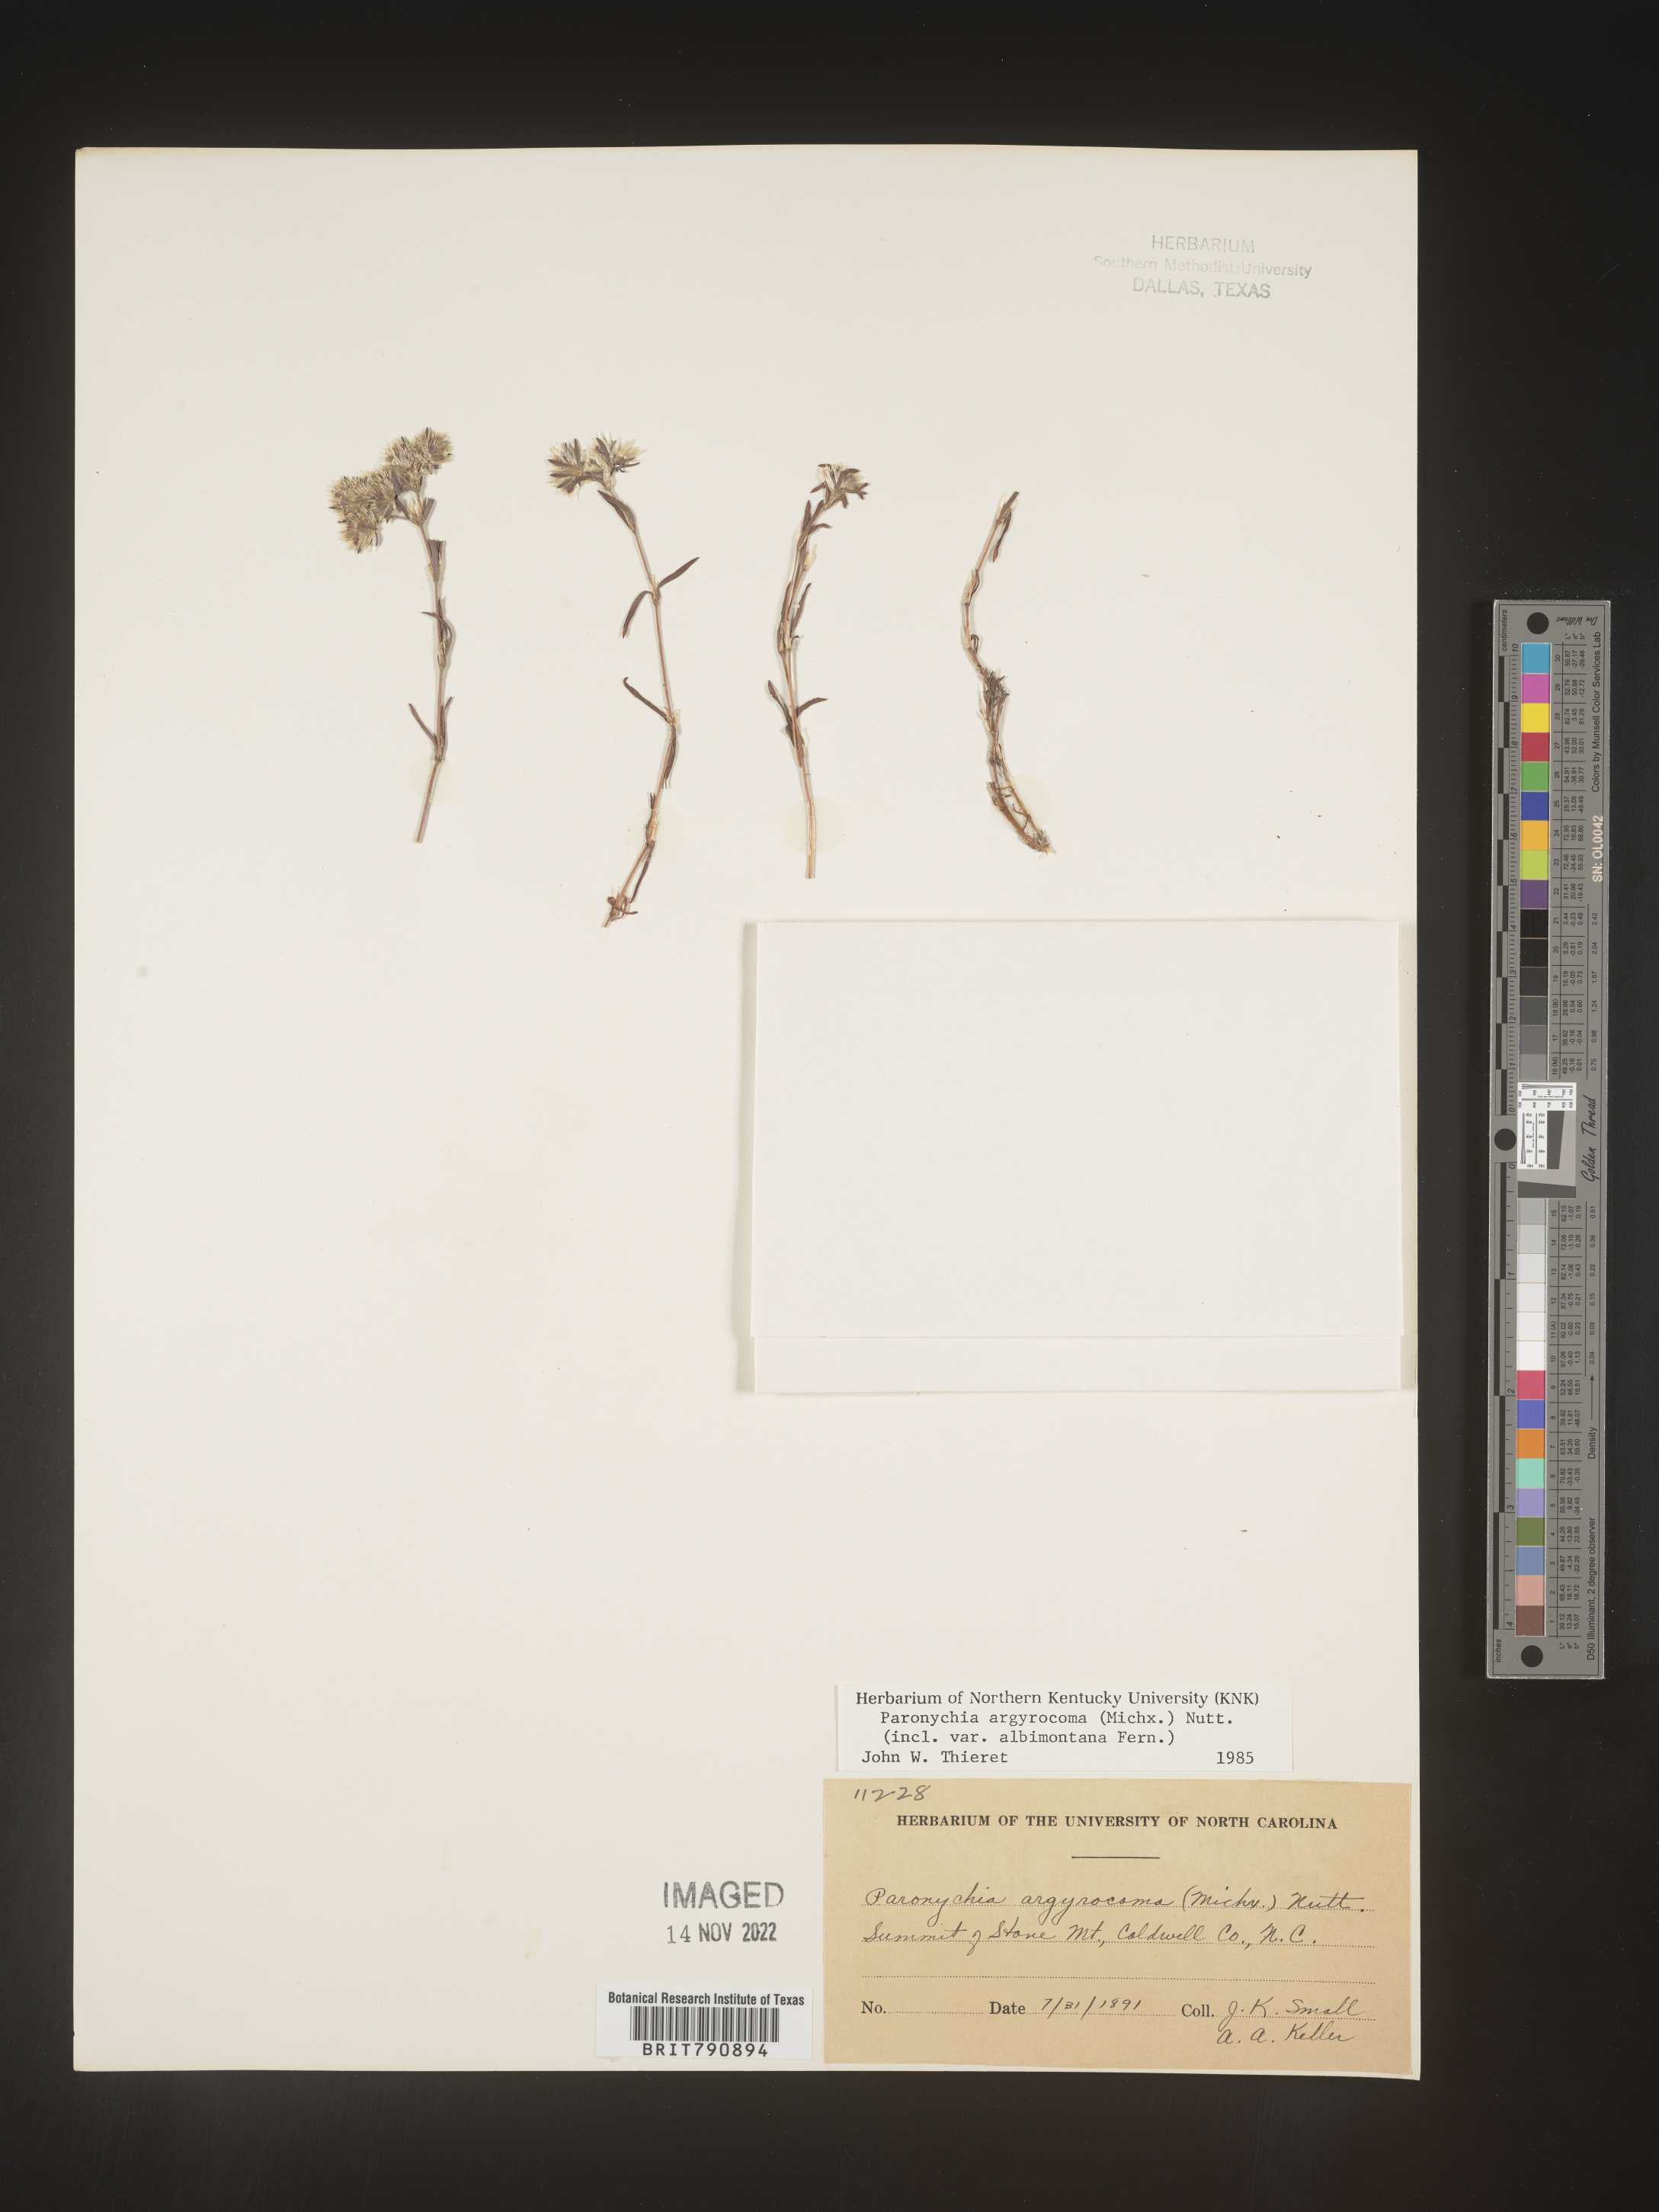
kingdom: Plantae
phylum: Tracheophyta
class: Magnoliopsida
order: Caryophyllales
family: Caryophyllaceae
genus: Paronychia
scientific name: Paronychia argyrocoma
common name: Silverling
